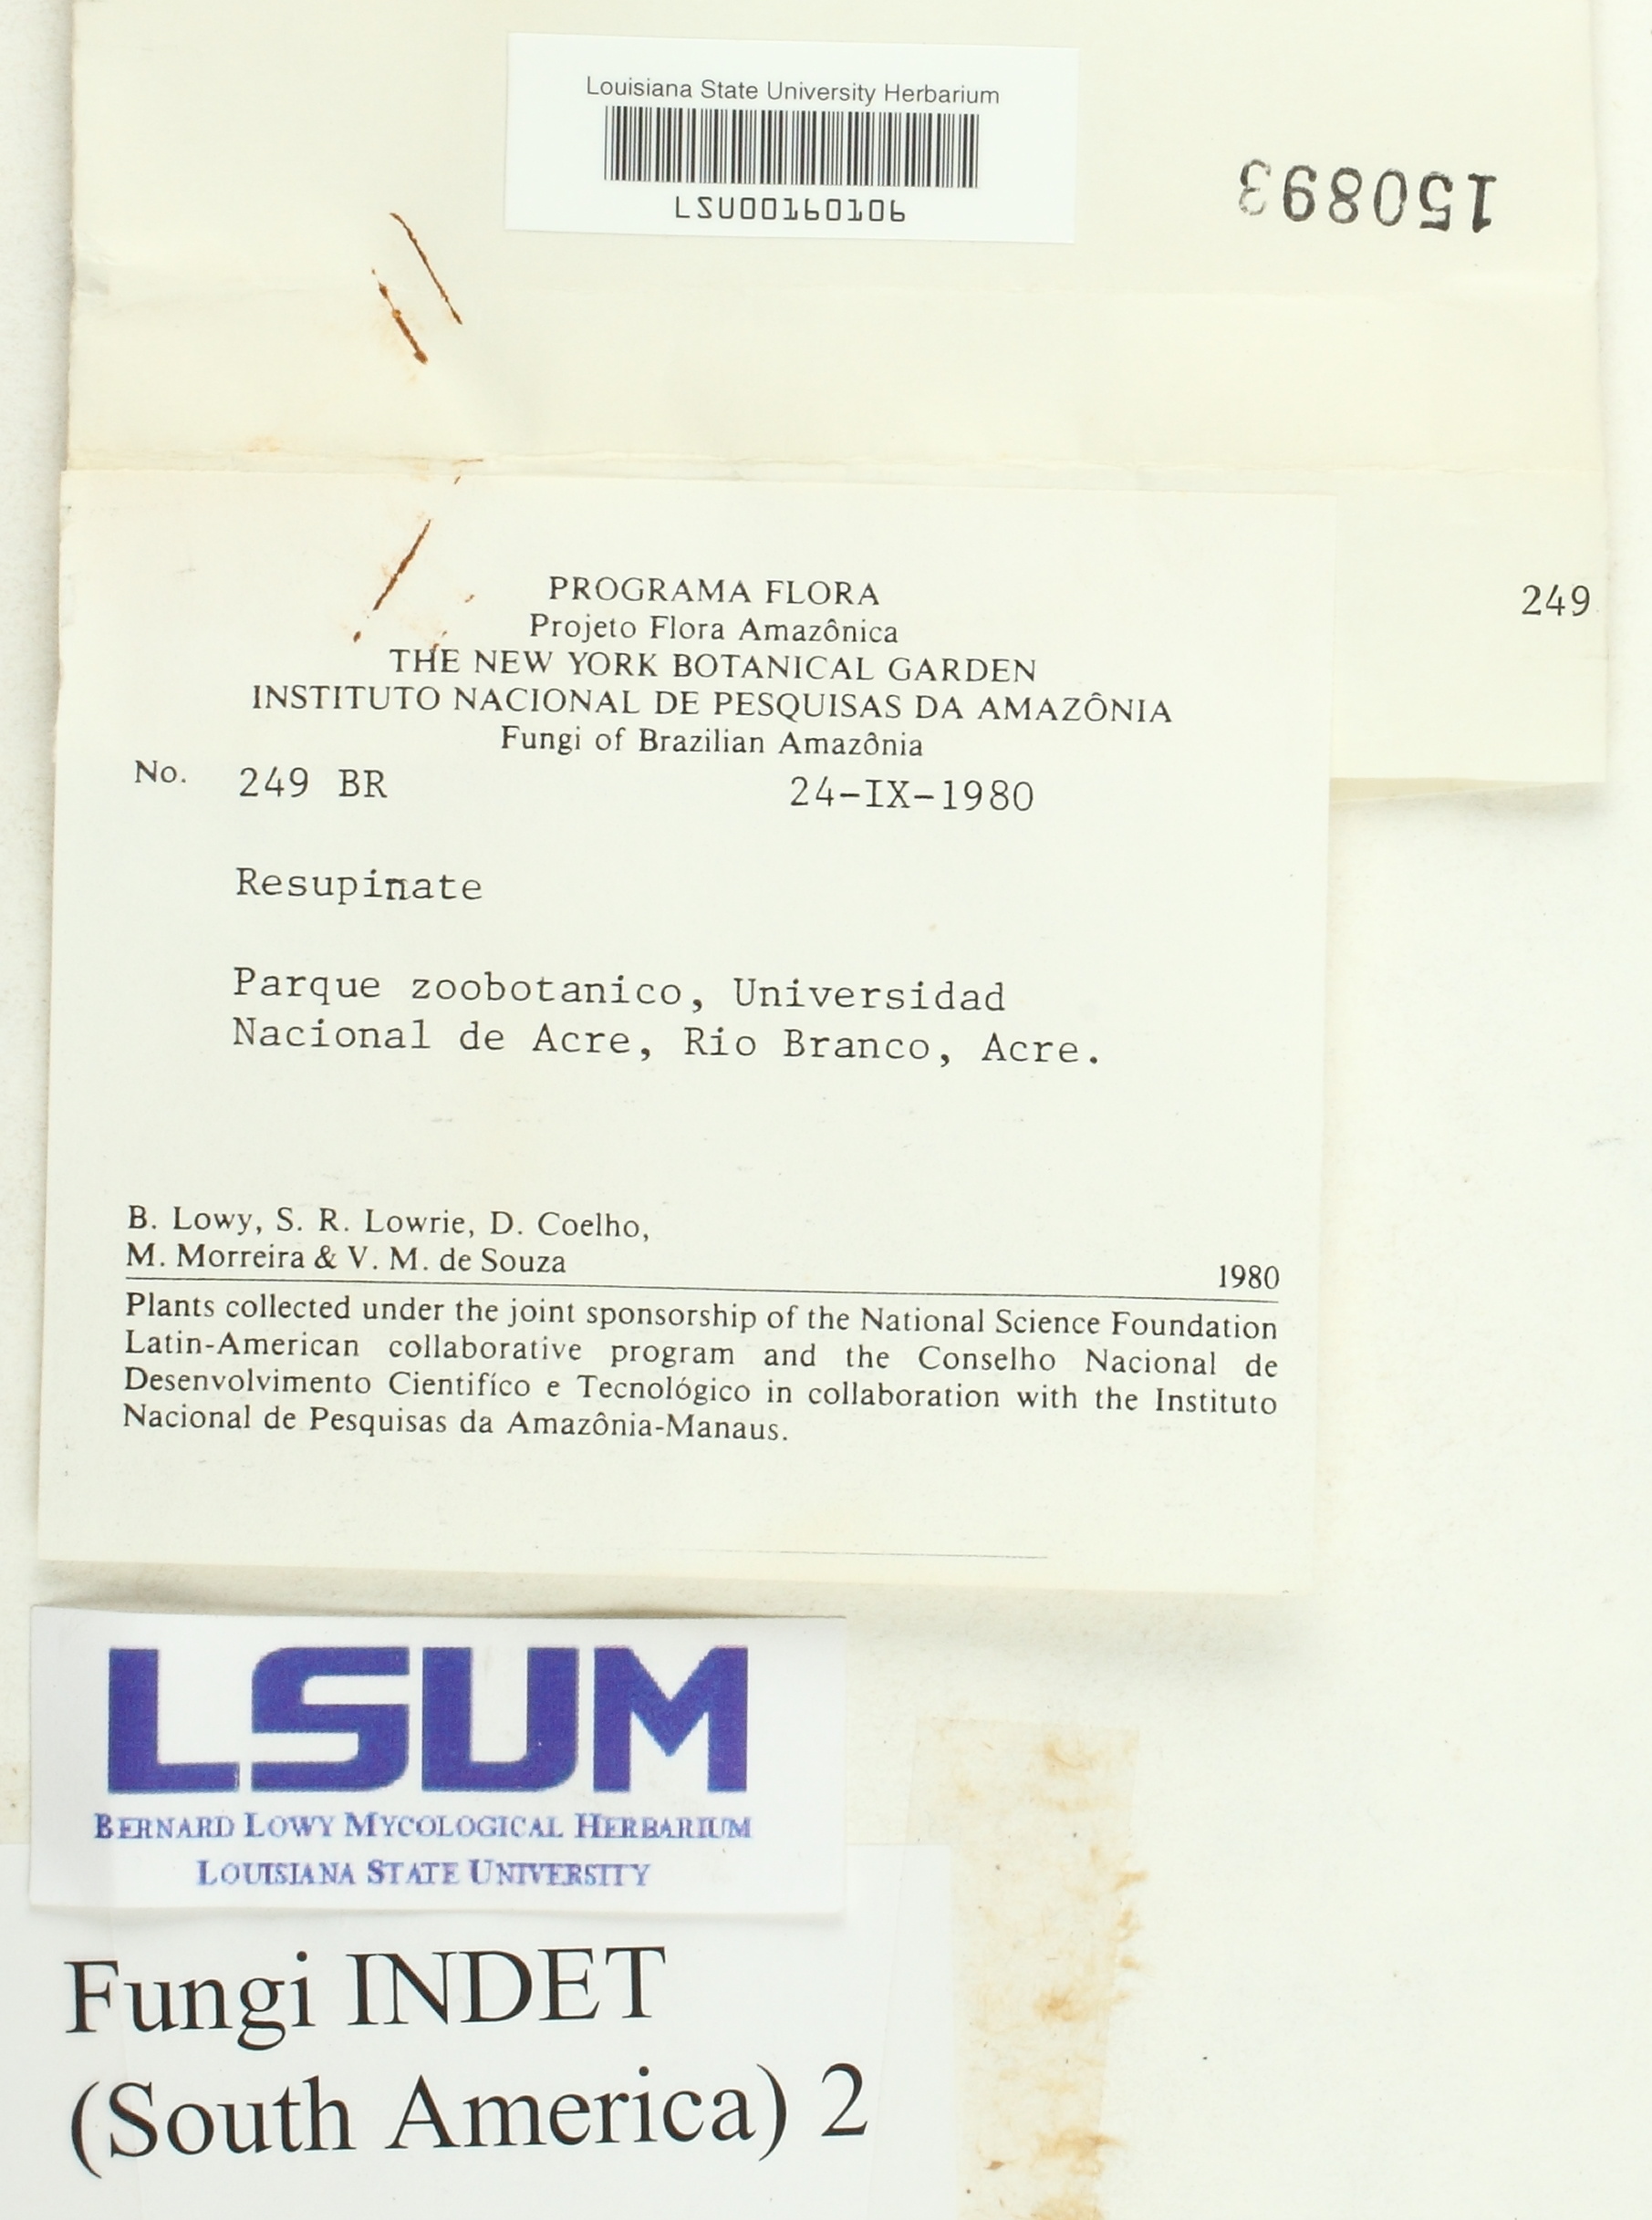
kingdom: Fungi
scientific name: Fungi
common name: Fungi
